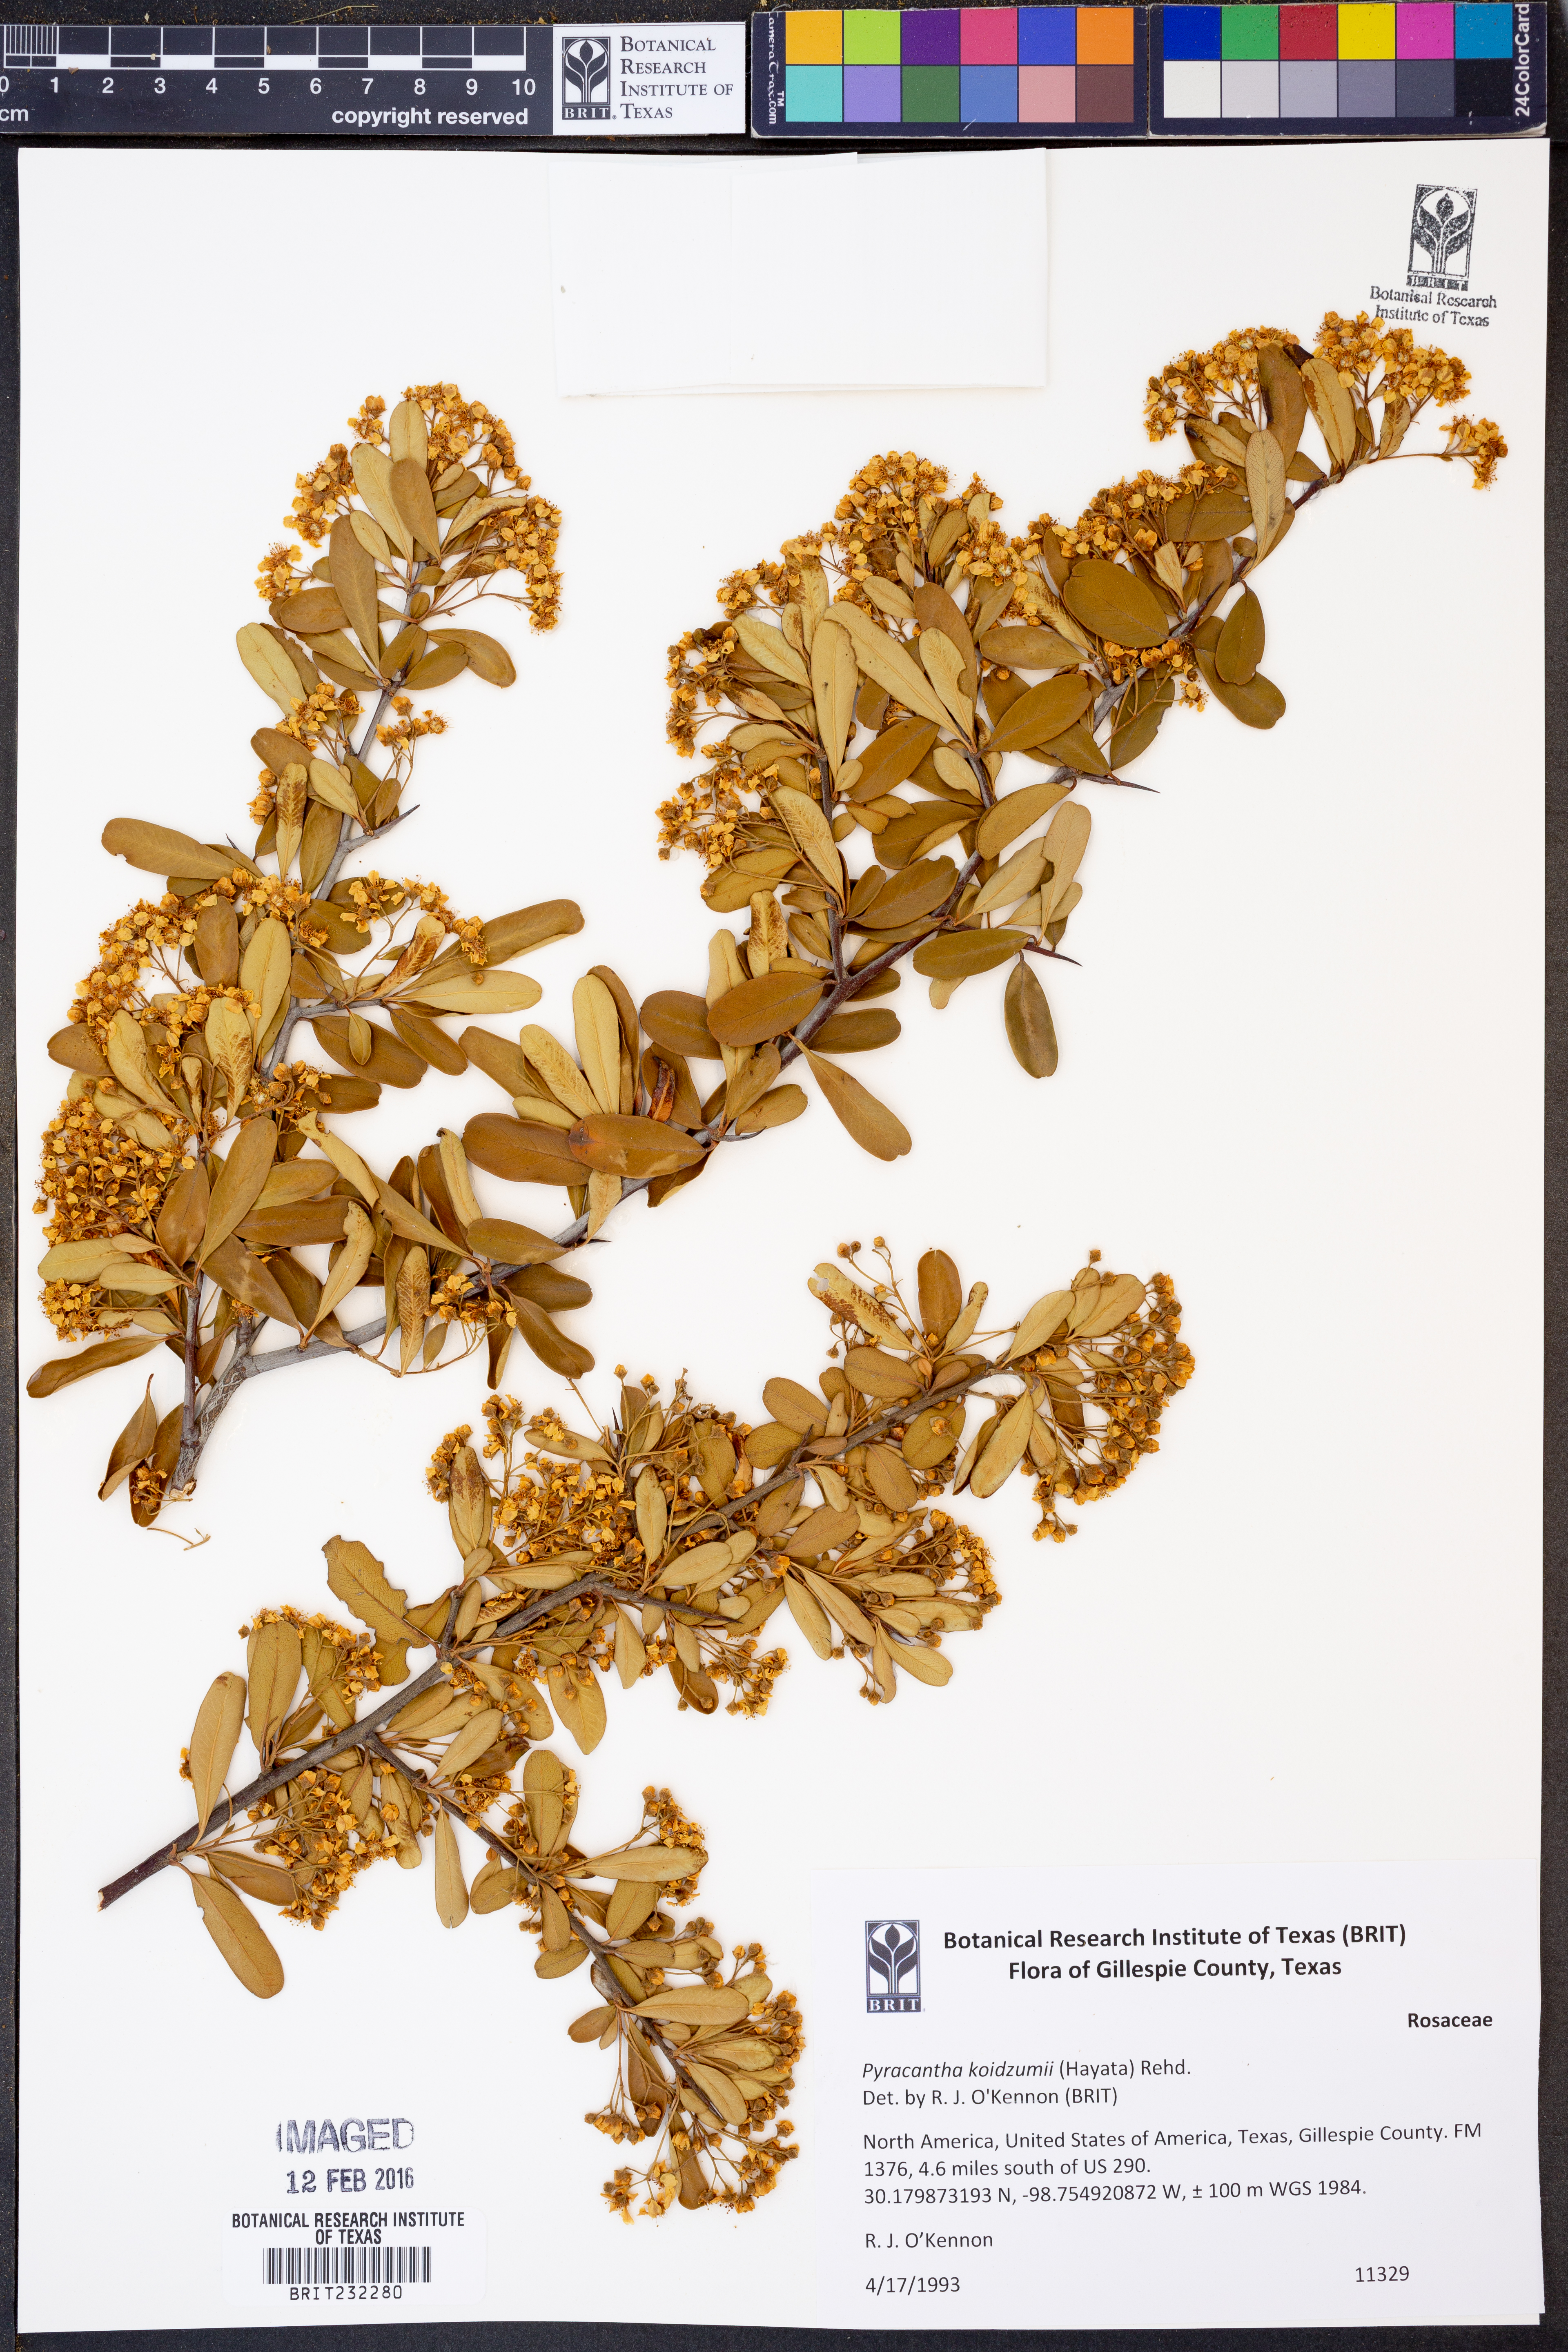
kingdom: Plantae
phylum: Tracheophyta
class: Magnoliopsida
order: Rosales
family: Rosaceae
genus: Pyracantha
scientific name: Pyracantha koidzumii
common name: Formosa firethorn
